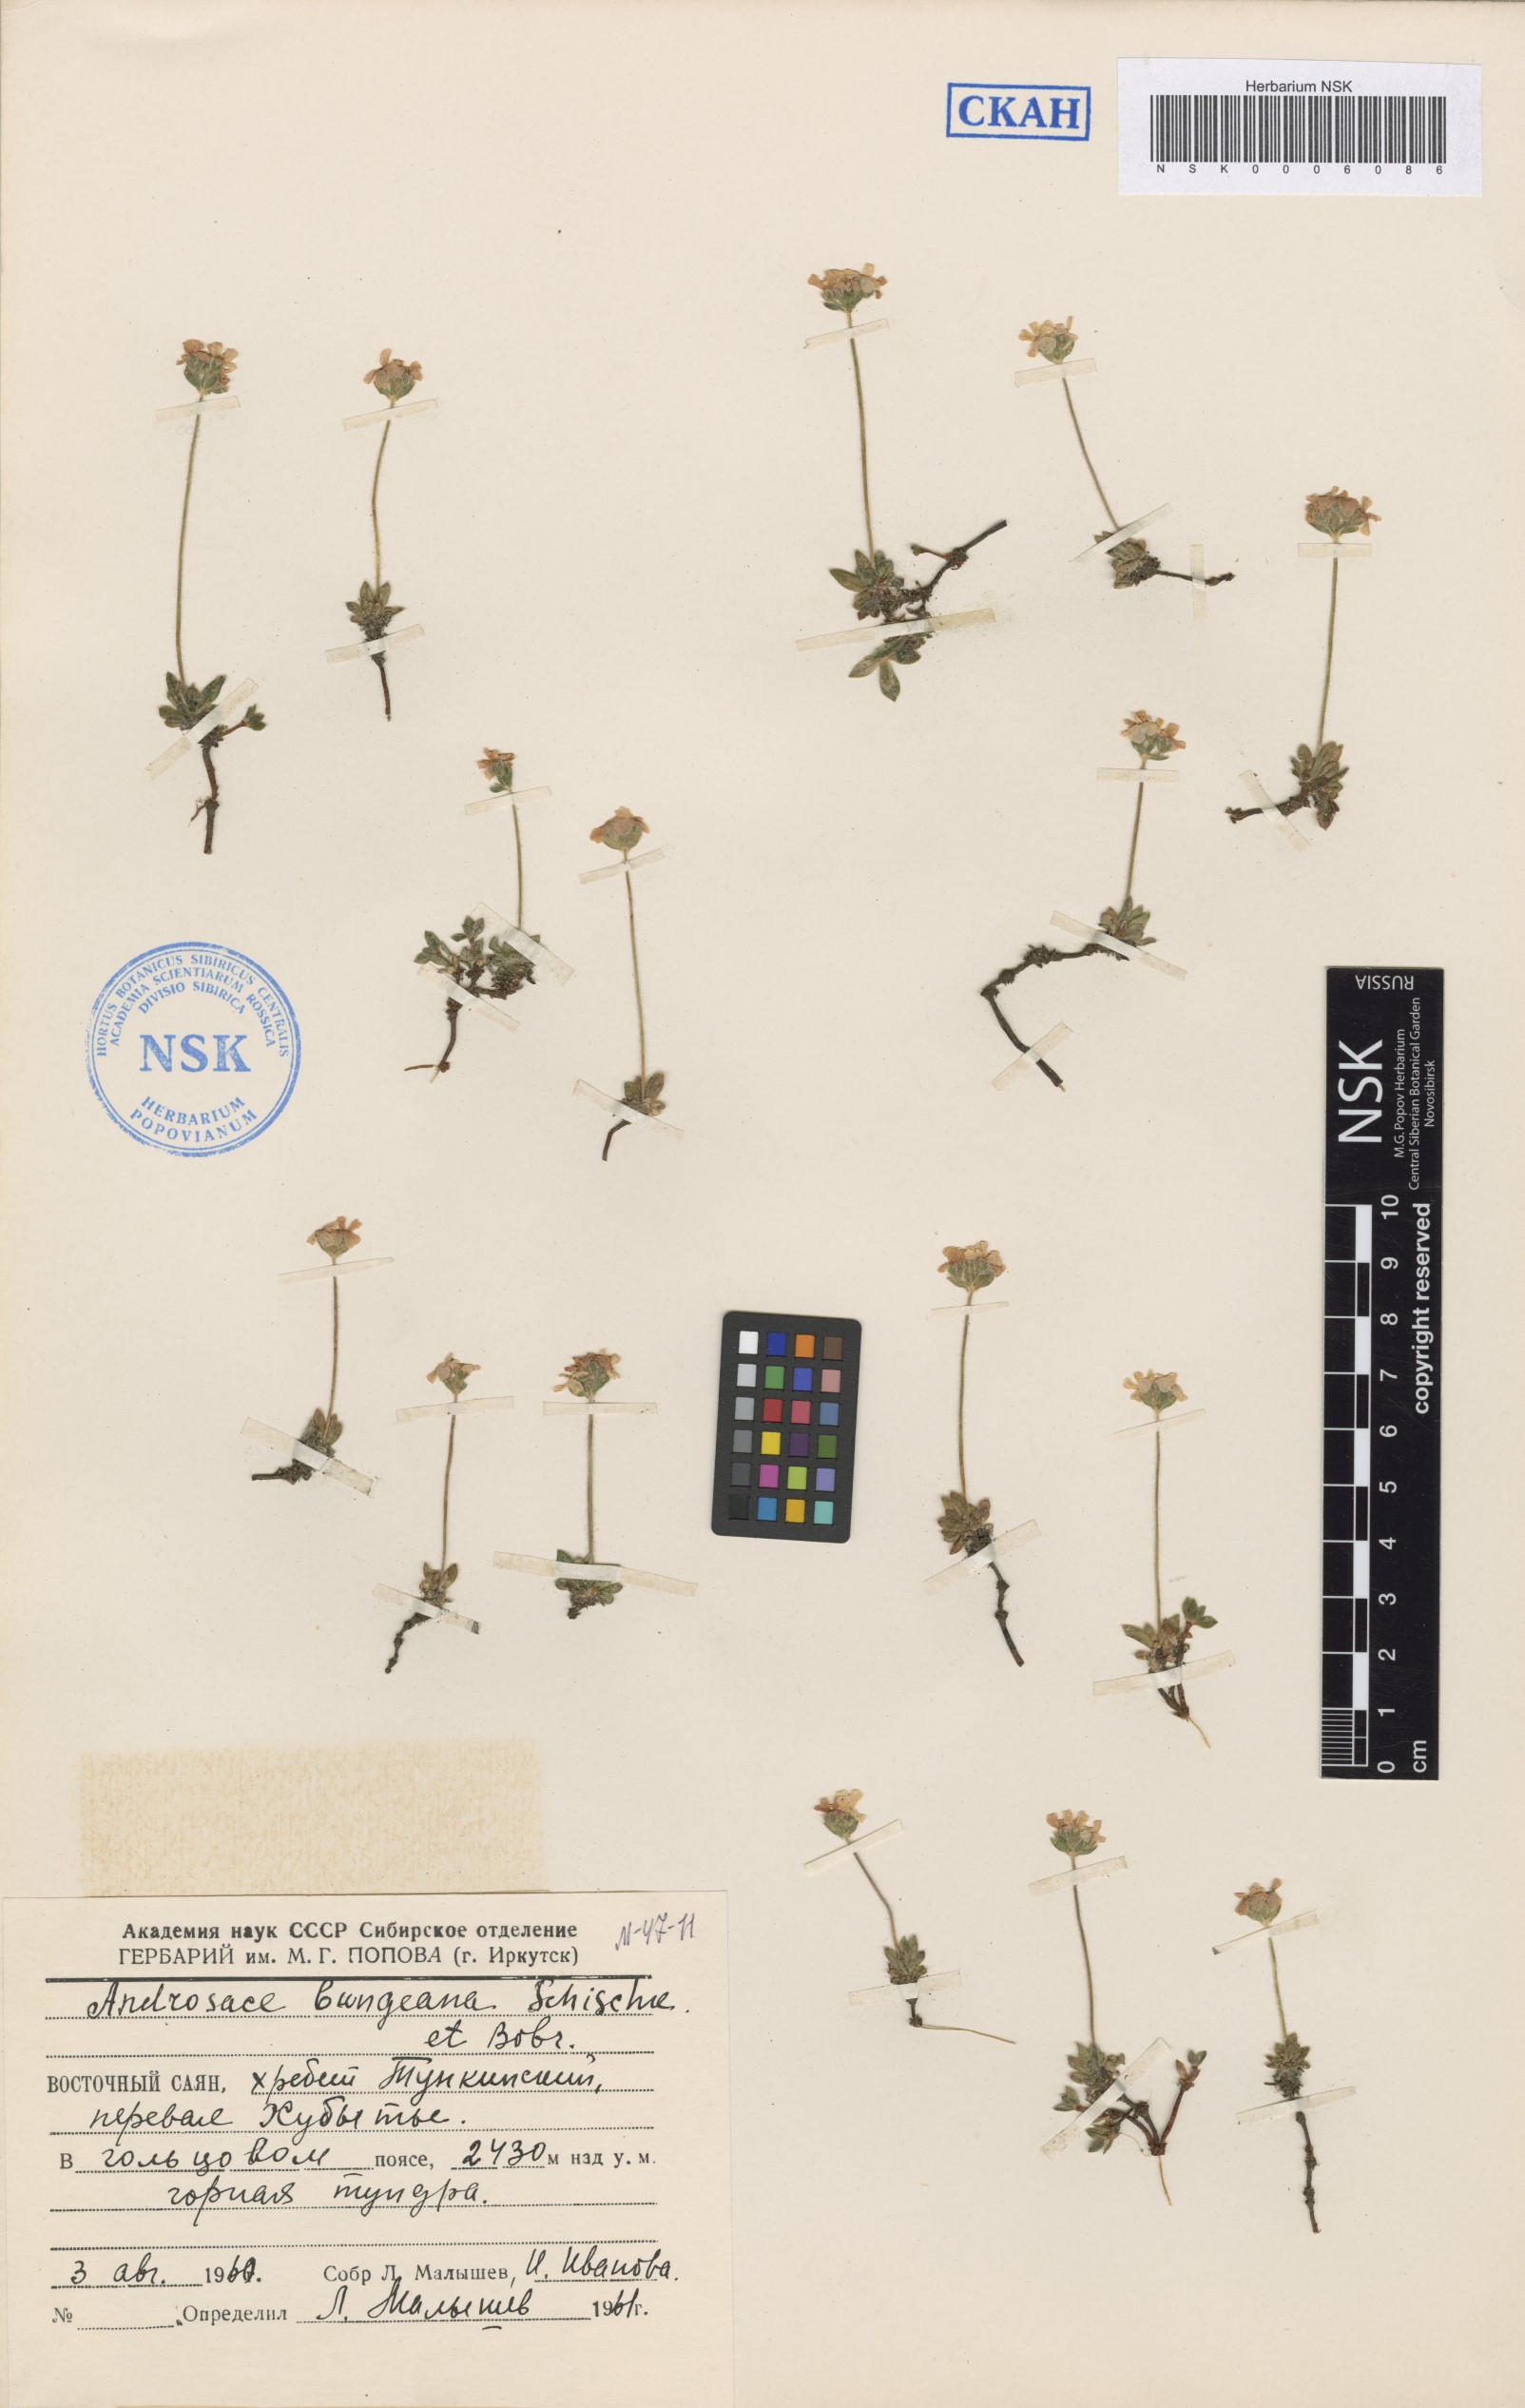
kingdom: Plantae
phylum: Tracheophyta
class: Magnoliopsida
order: Ericales
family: Primulaceae
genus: Androsace
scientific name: Androsace bungeana
